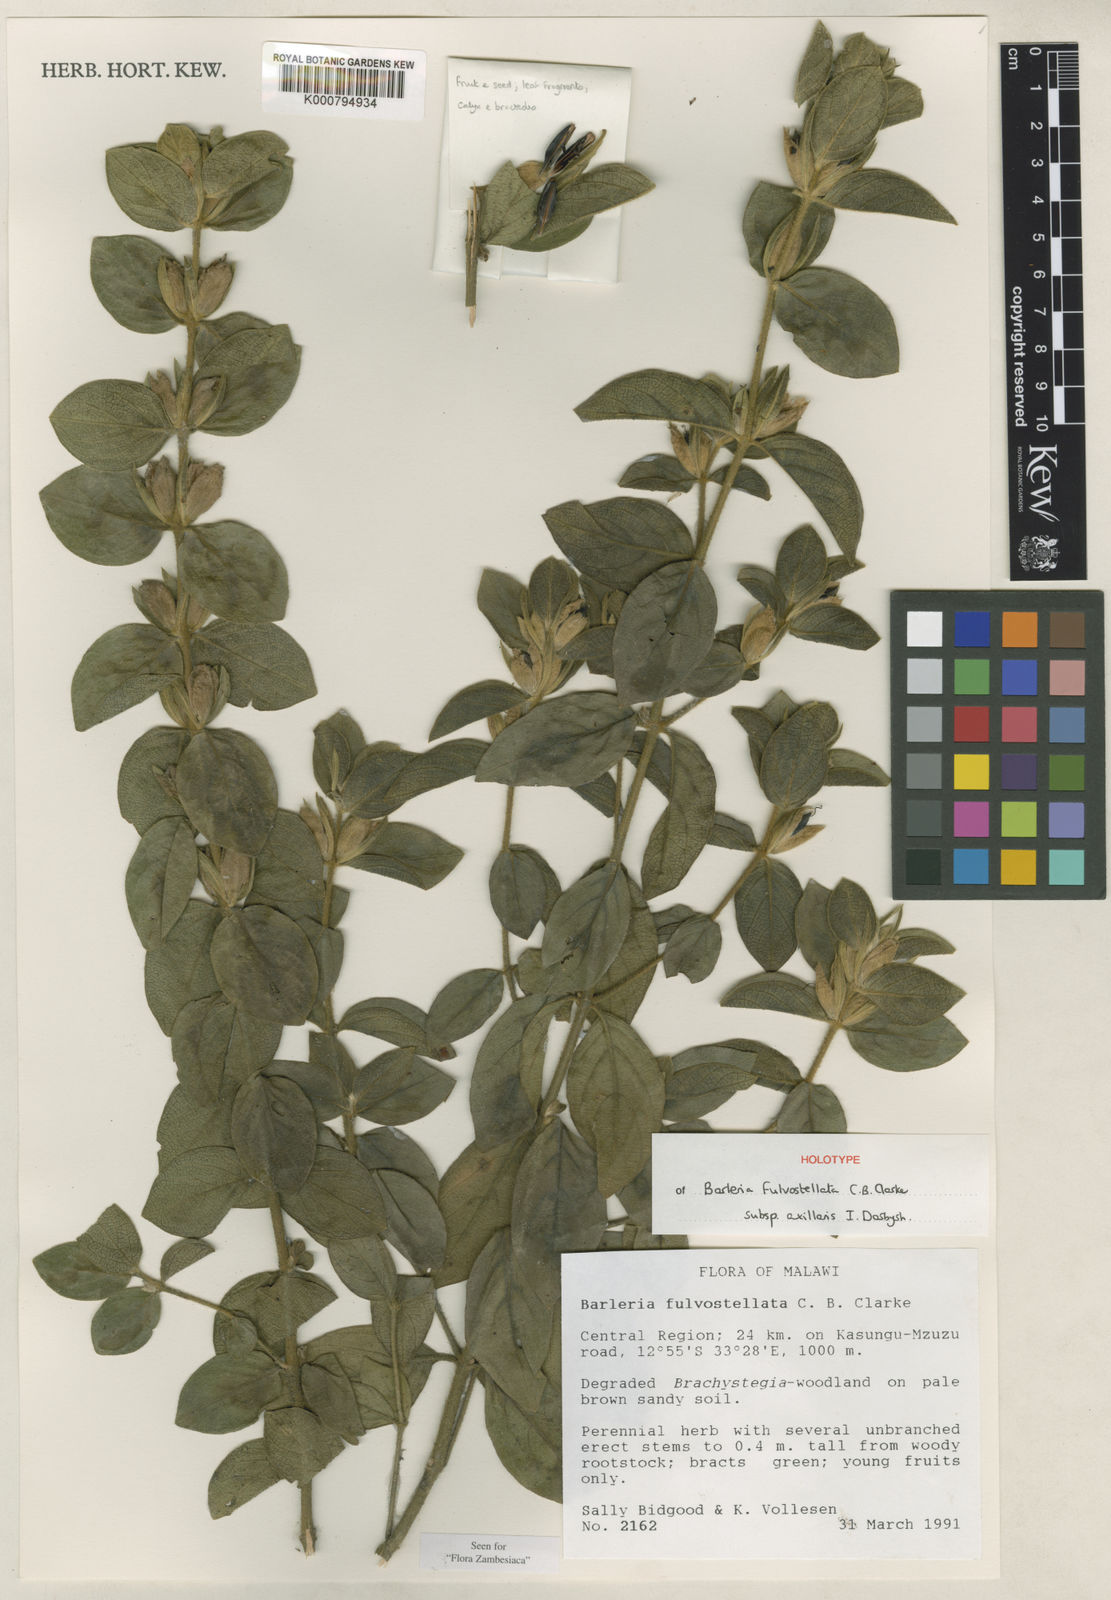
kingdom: Plantae
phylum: Tracheophyta
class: Magnoliopsida
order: Lamiales
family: Acanthaceae
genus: Barleria
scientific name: Barleria fulvostellata
